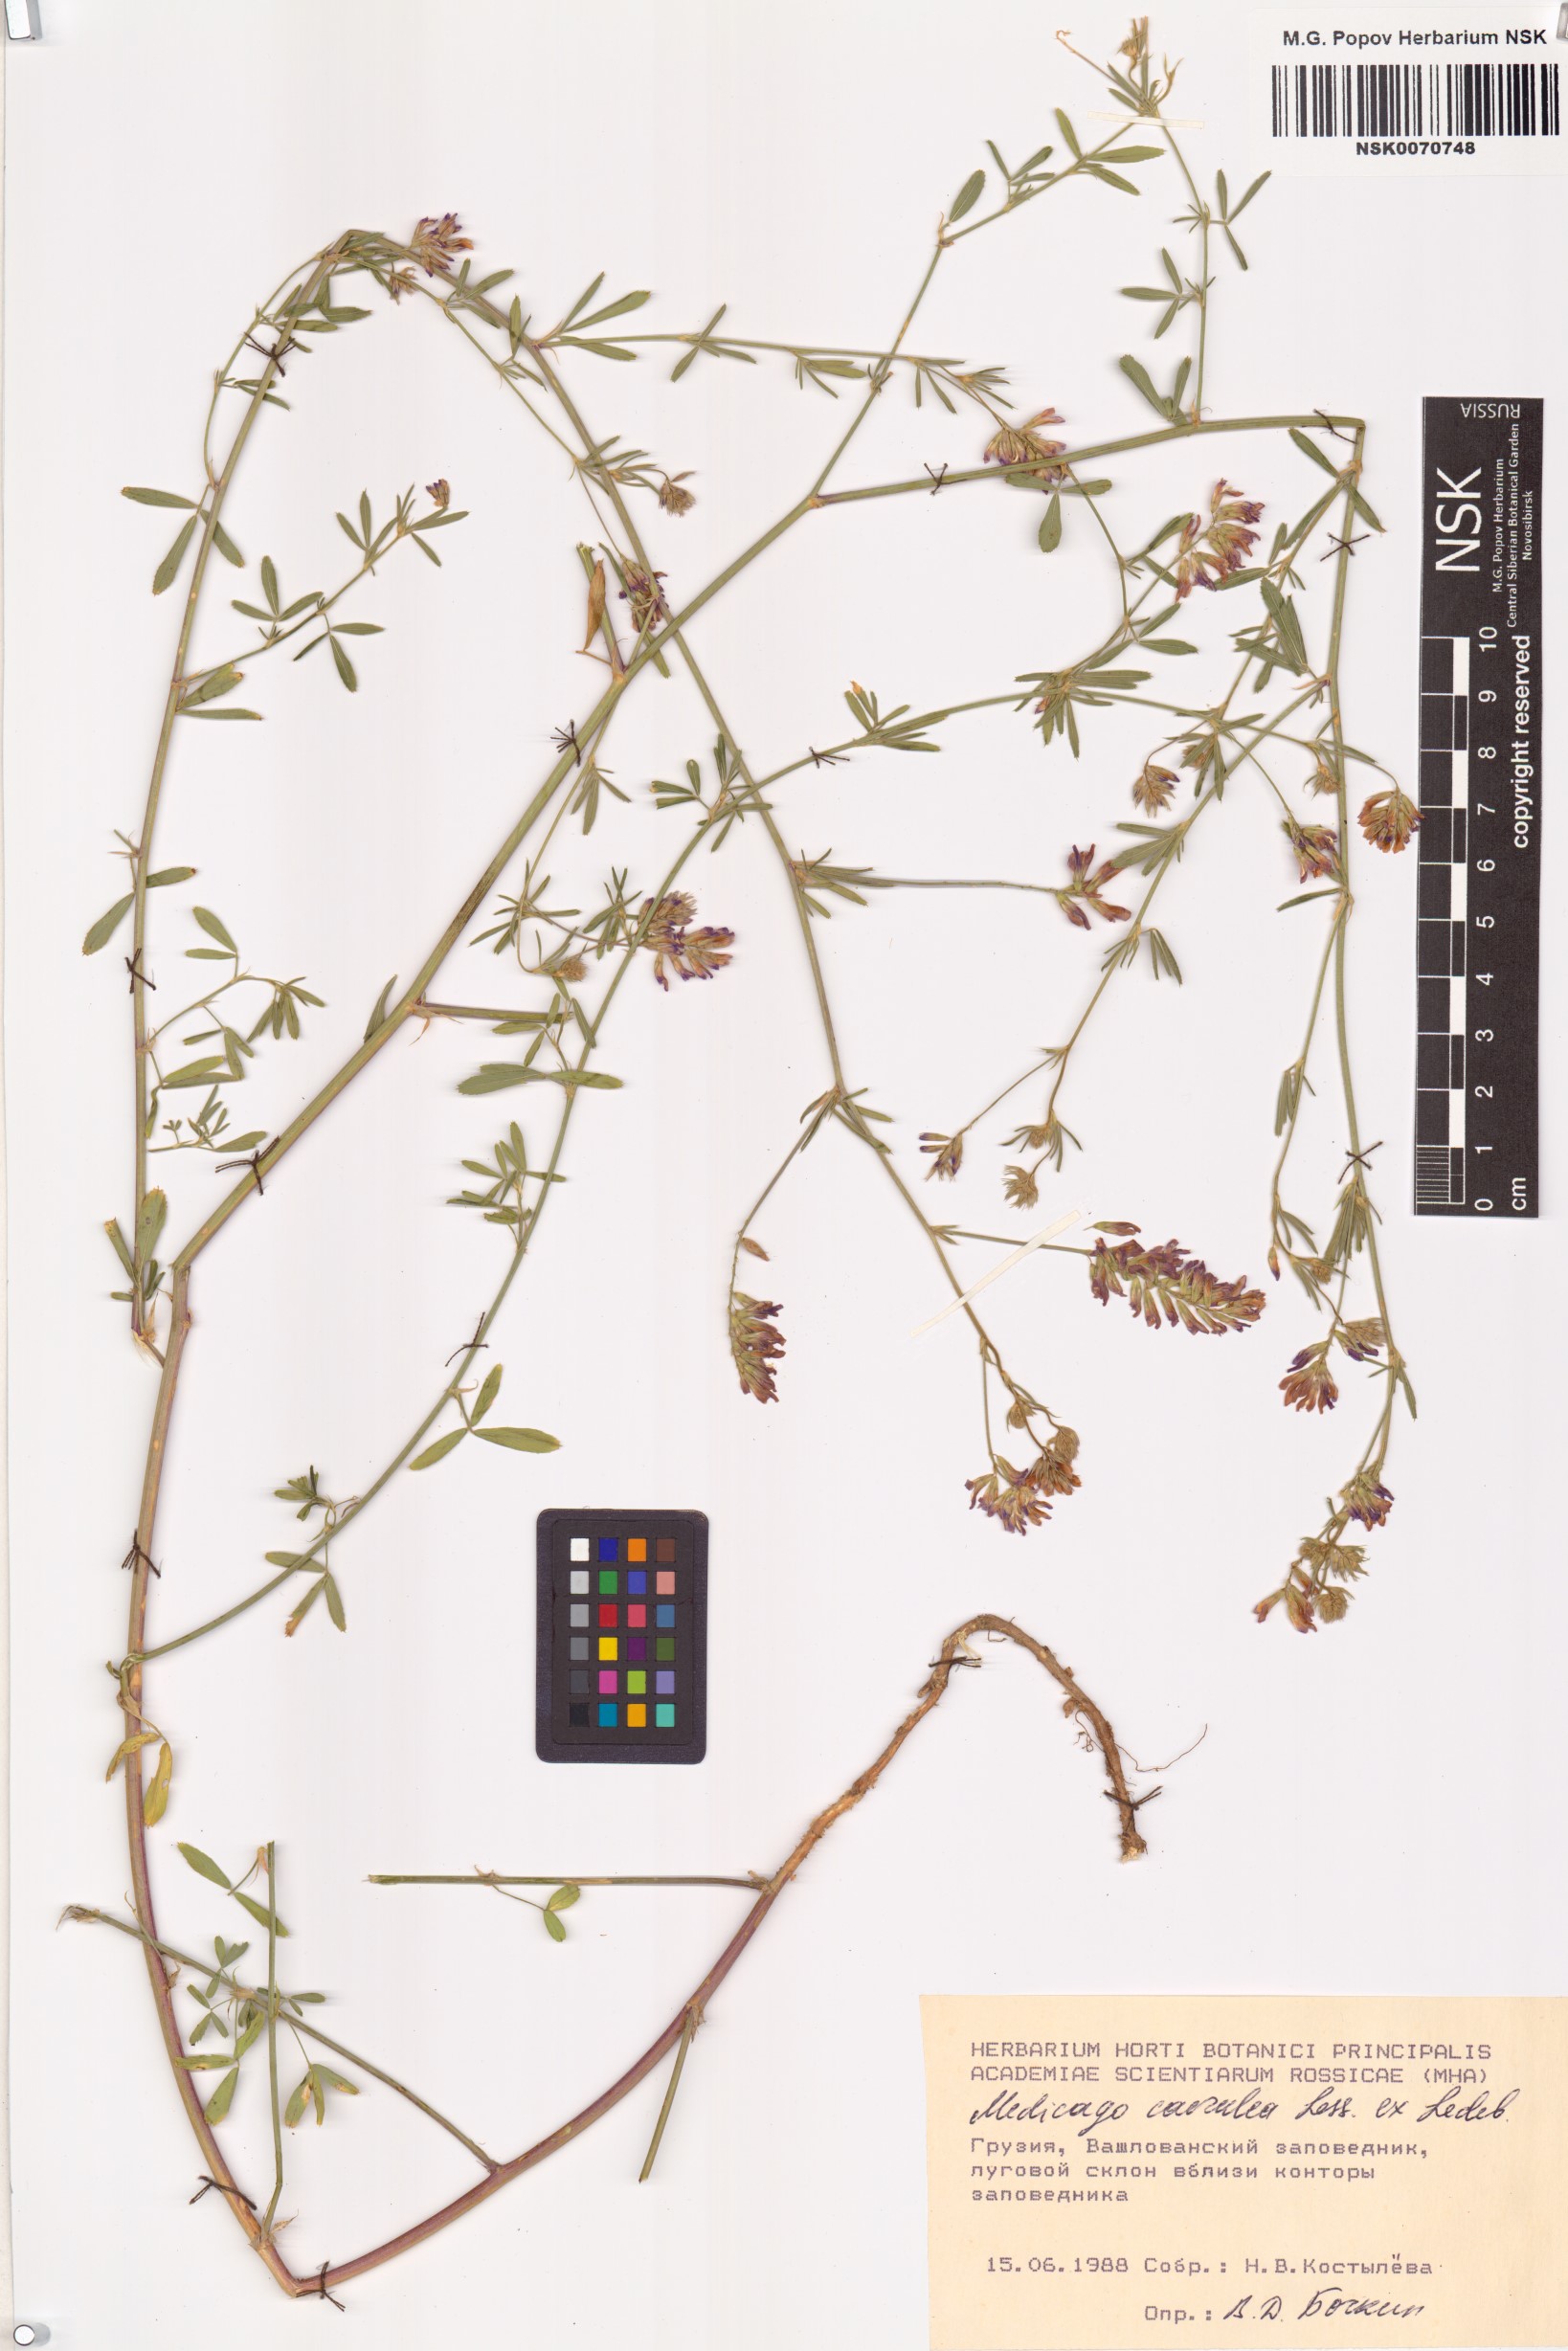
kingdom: Plantae
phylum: Tracheophyta
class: Magnoliopsida
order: Fabales
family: Fabaceae
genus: Medicago
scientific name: Medicago lessingii
